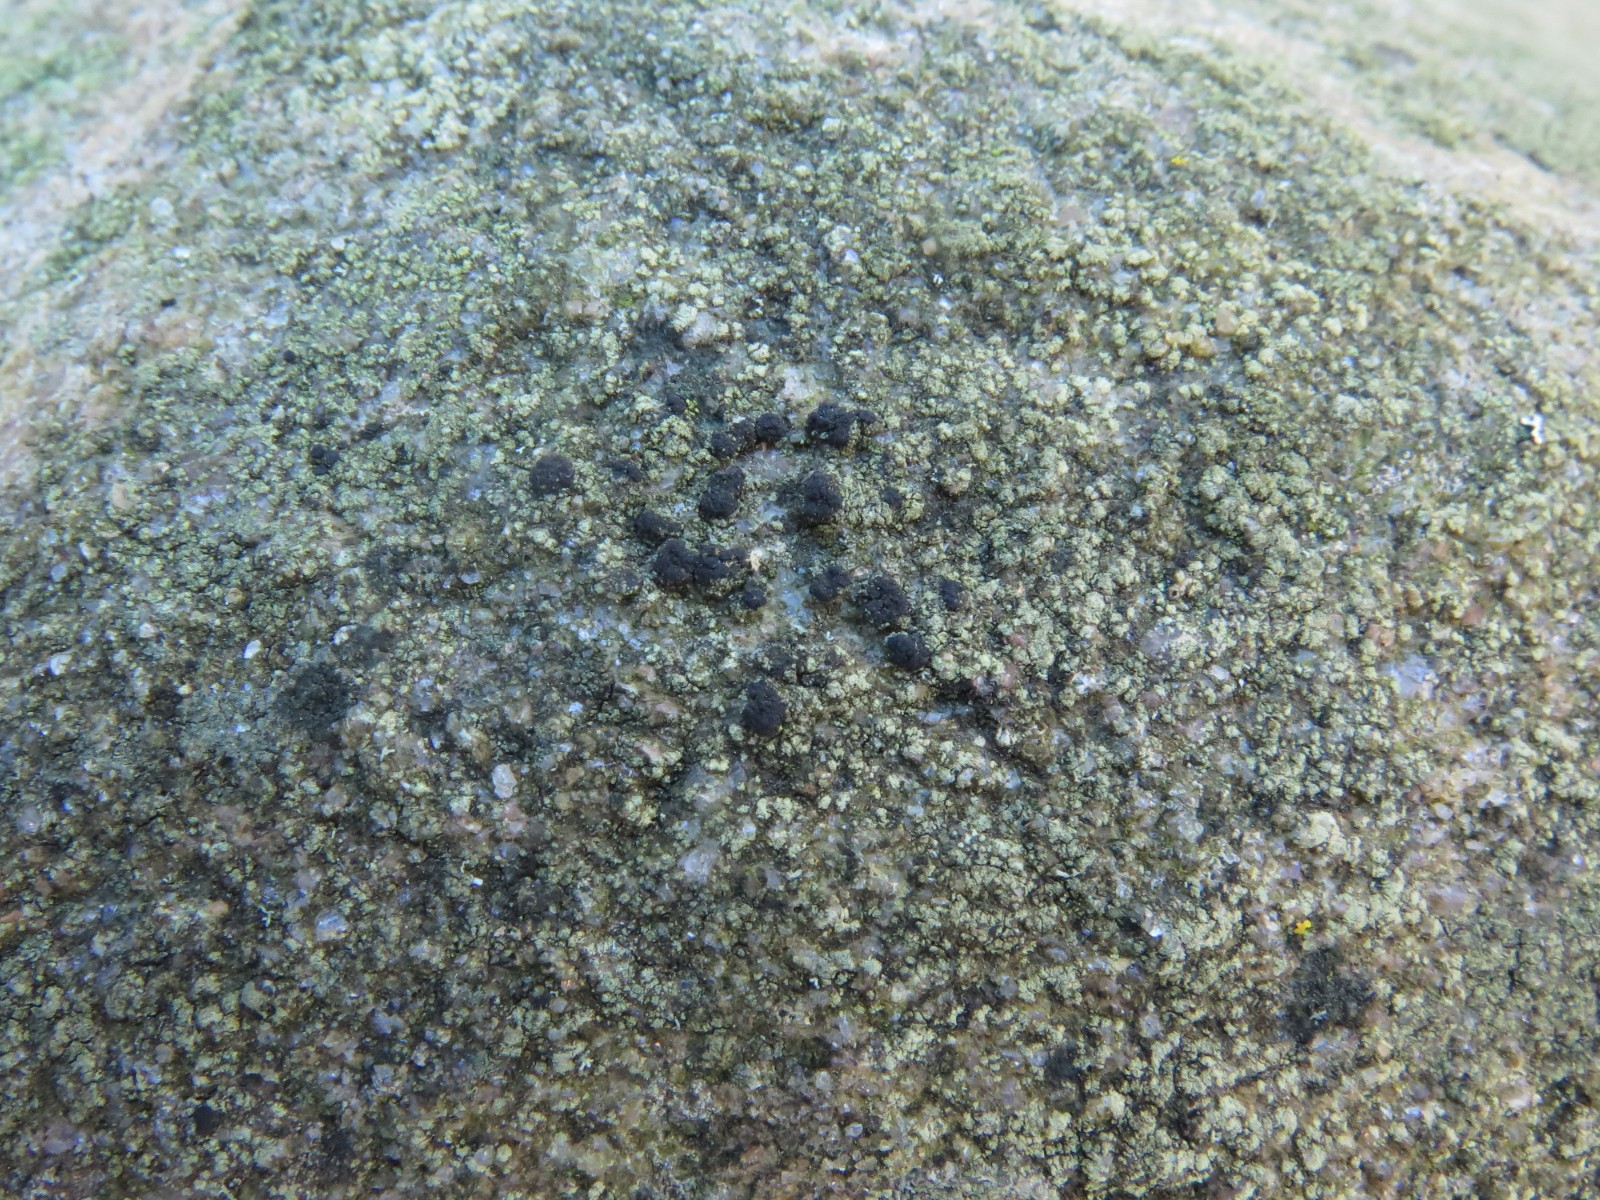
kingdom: Fungi
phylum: Ascomycota
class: Lecanoromycetes
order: Lecanorales
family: Lecanoraceae
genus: Lecidella
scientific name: Lecidella scabra
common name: skurvet skivelav
